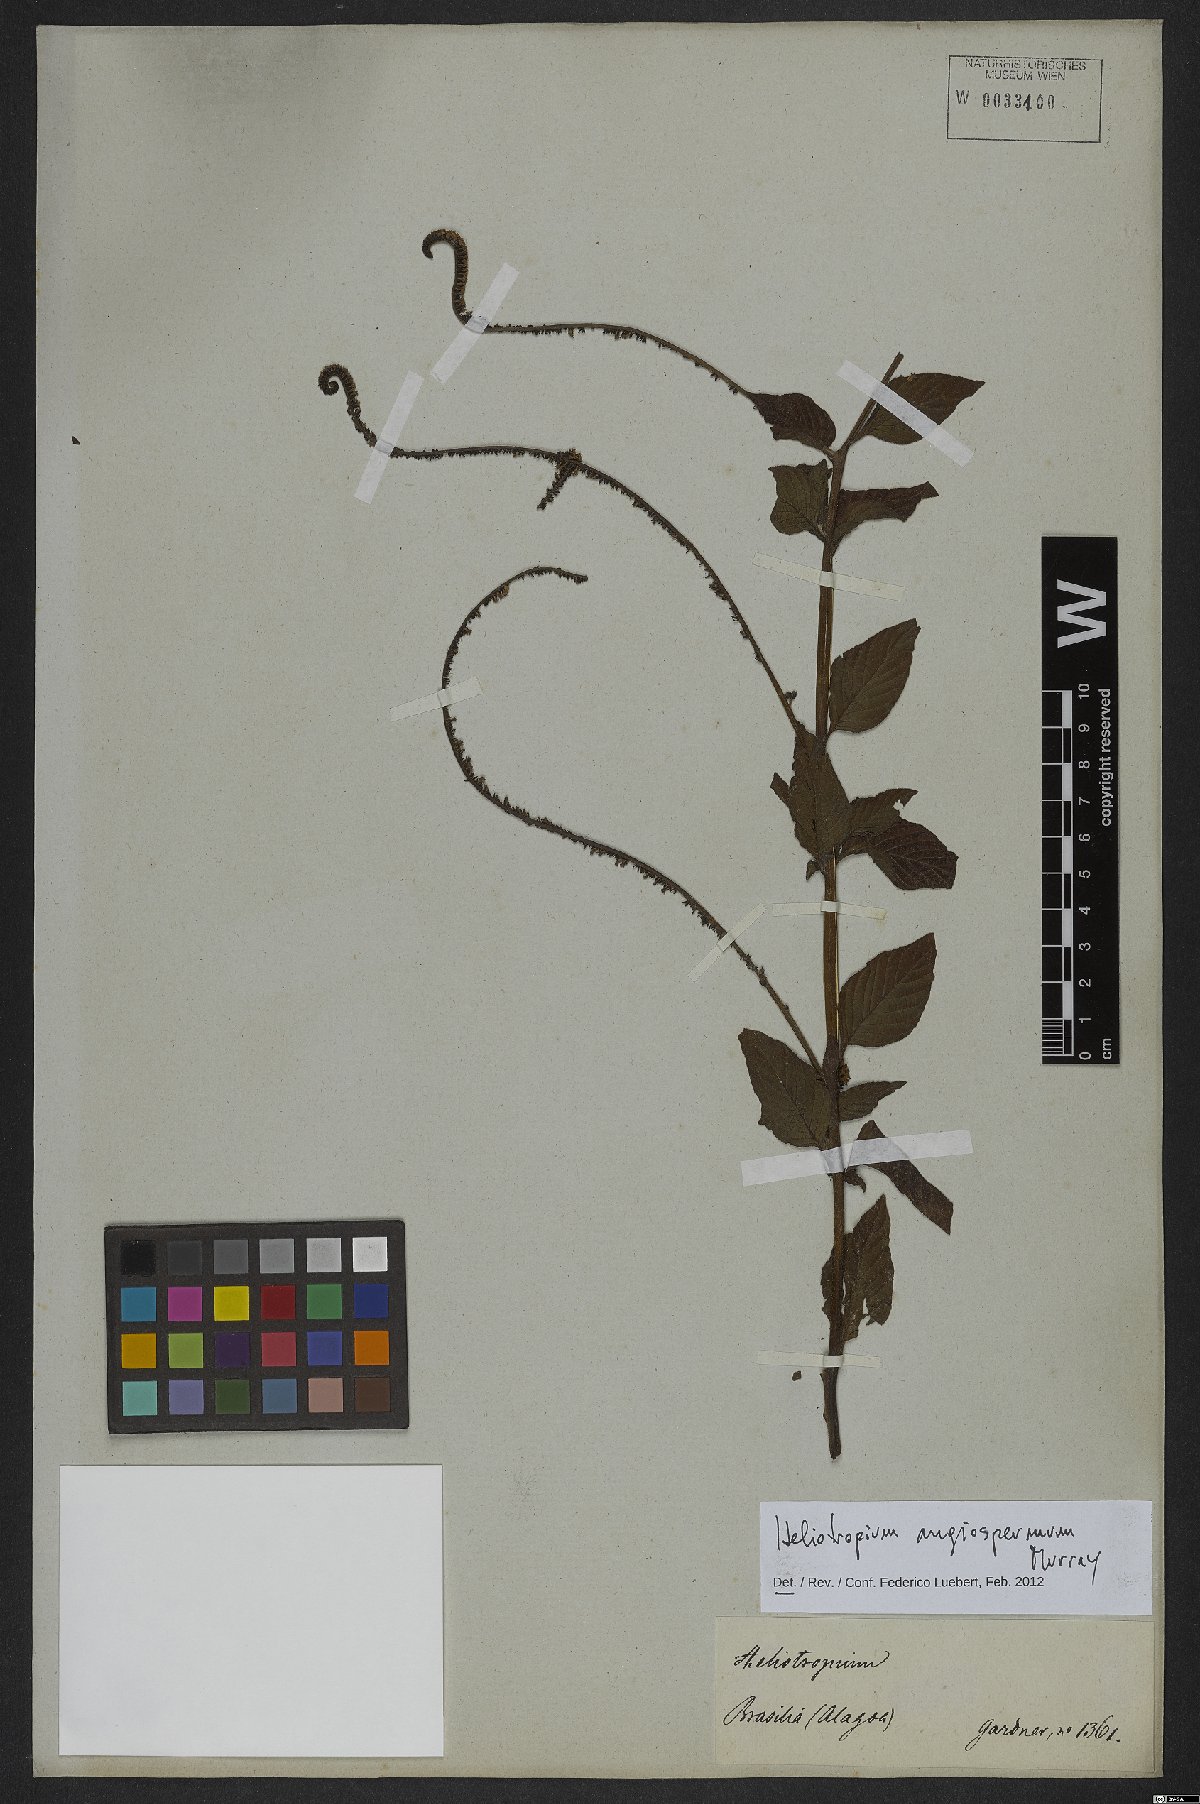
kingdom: Plantae
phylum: Tracheophyta
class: Magnoliopsida
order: Boraginales
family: Heliotropiaceae
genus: Heliotropium
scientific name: Heliotropium angiospermum
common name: Eye bright
